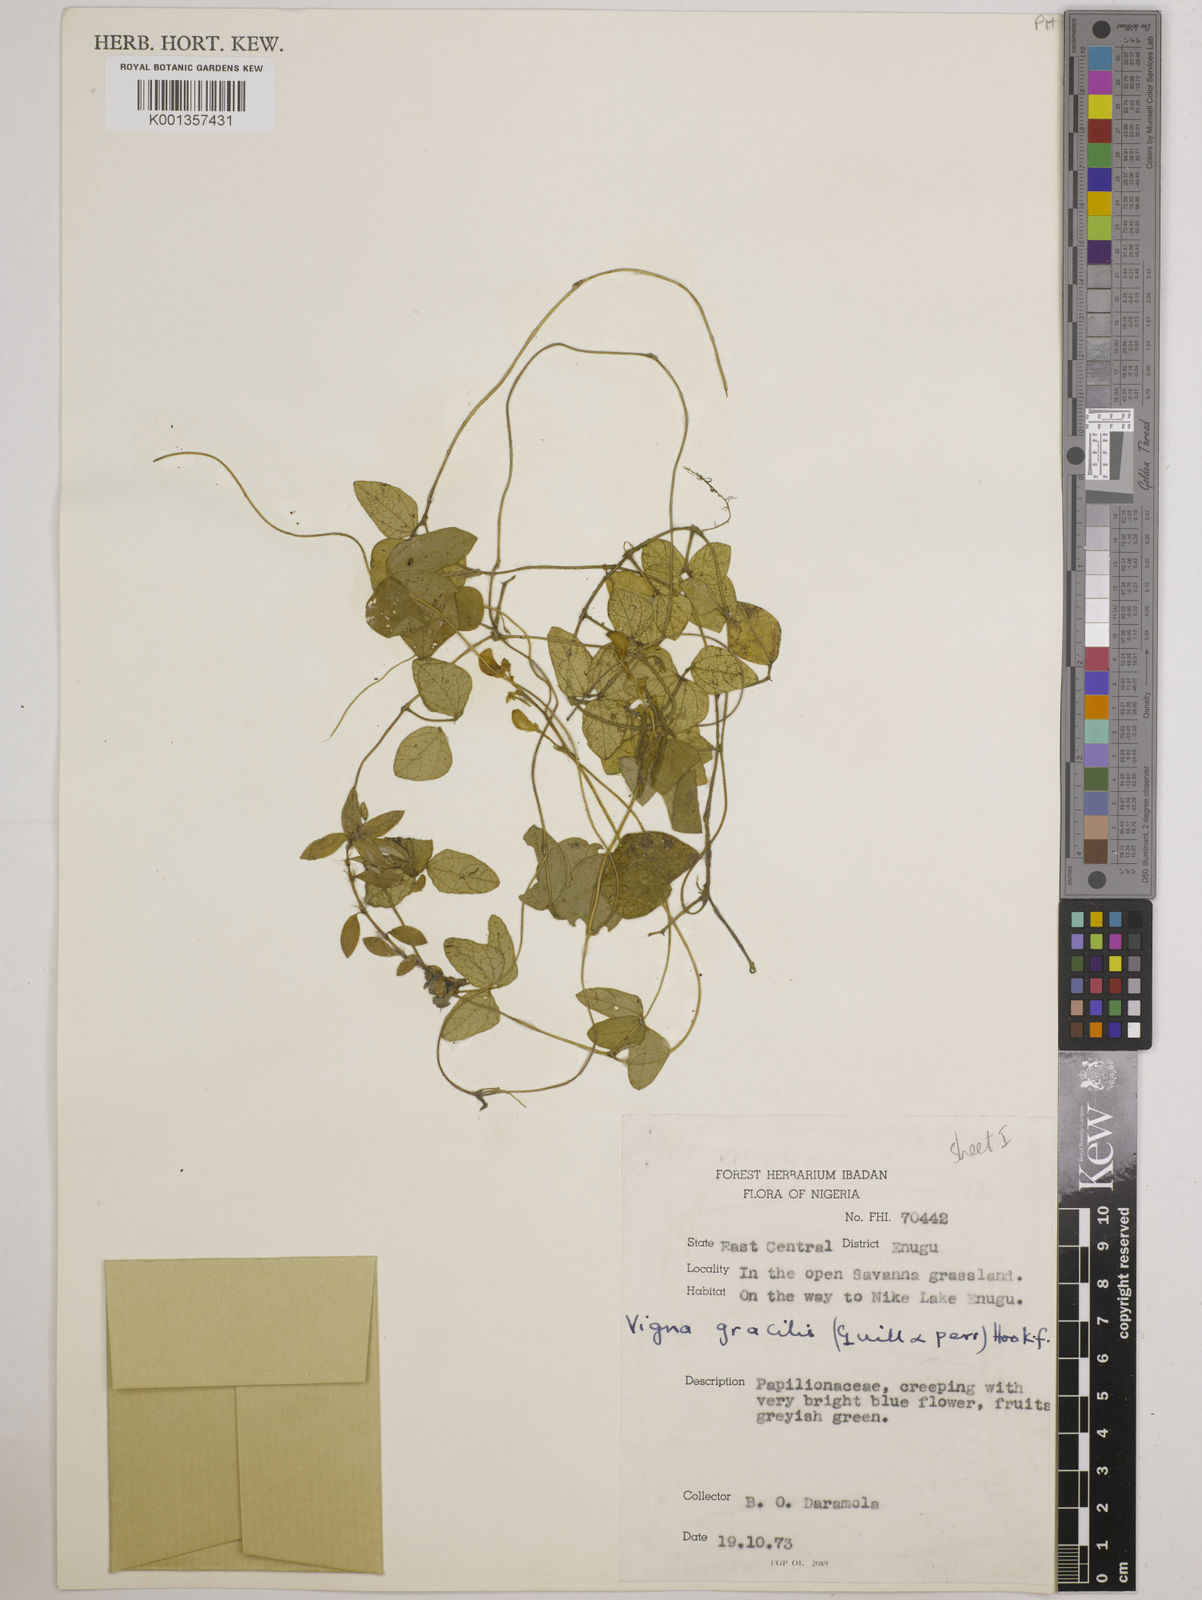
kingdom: Plantae
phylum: Tracheophyta
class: Magnoliopsida
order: Fabales
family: Fabaceae
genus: Vigna
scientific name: Vigna gracilis
